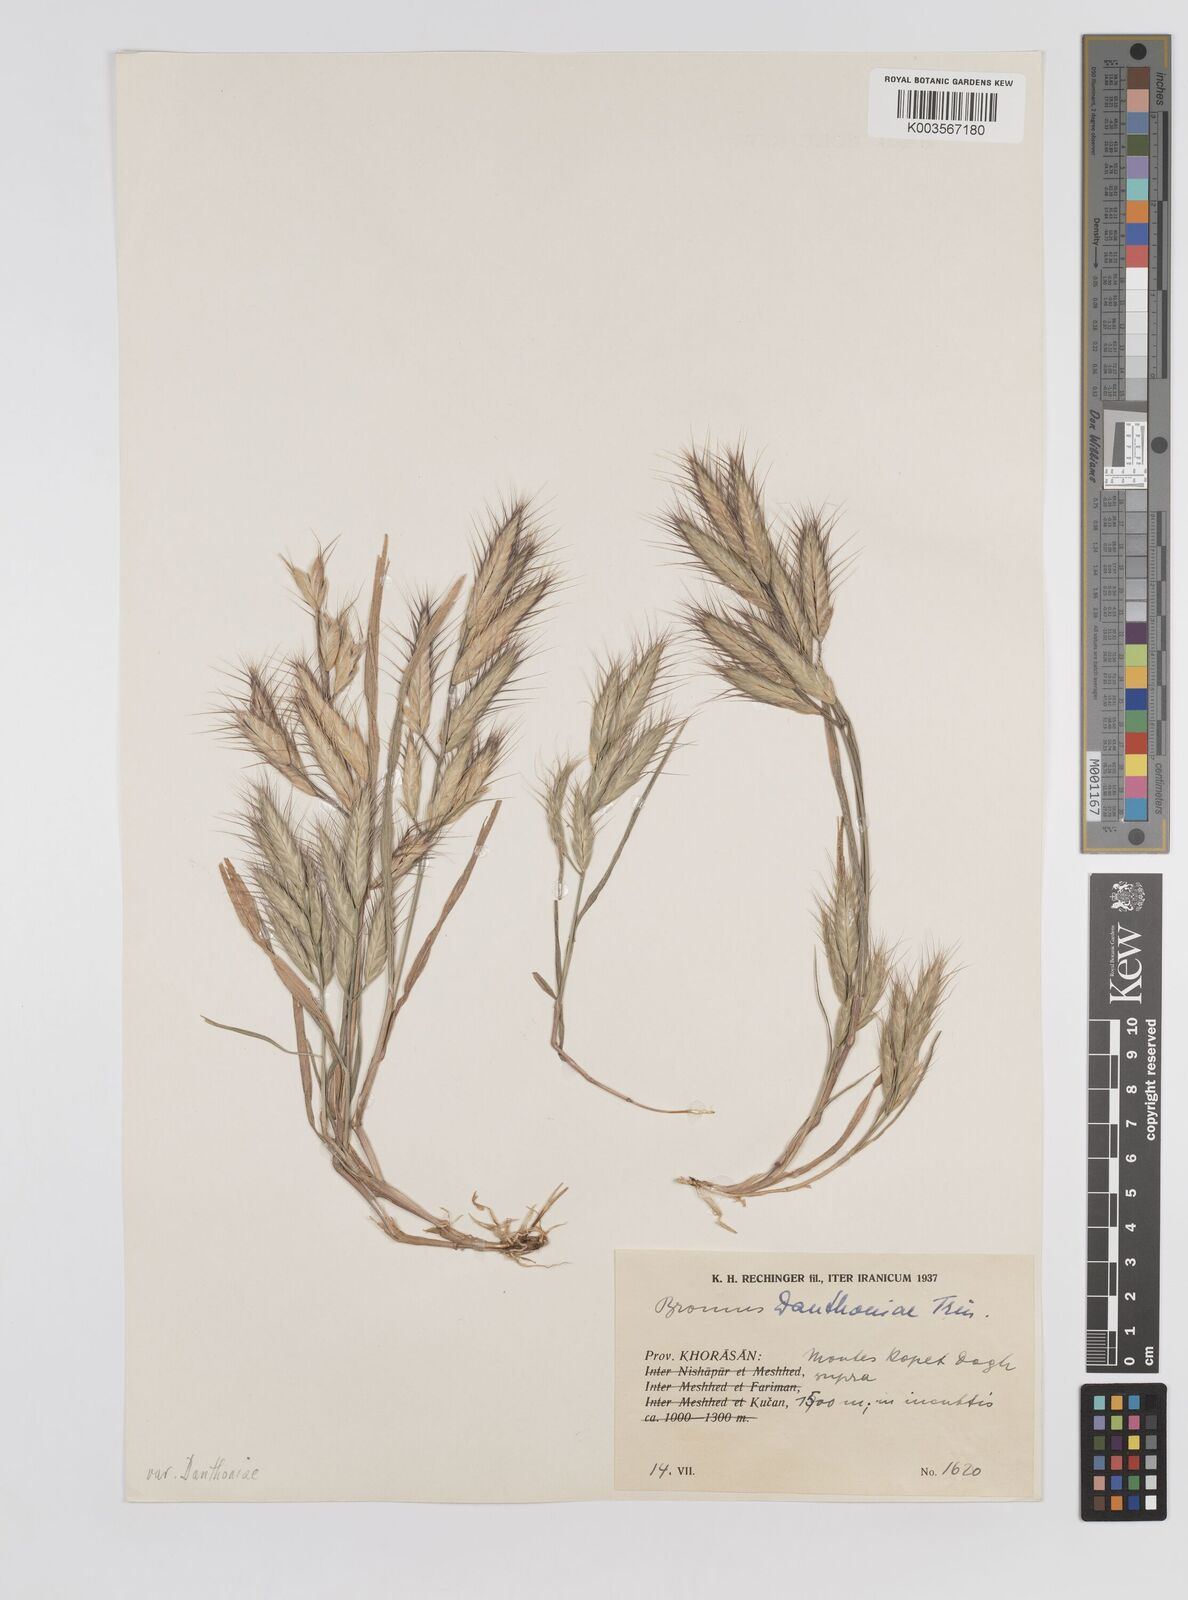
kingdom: Plantae
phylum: Tracheophyta
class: Liliopsida
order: Poales
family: Poaceae
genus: Bromus
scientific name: Bromus danthoniae
